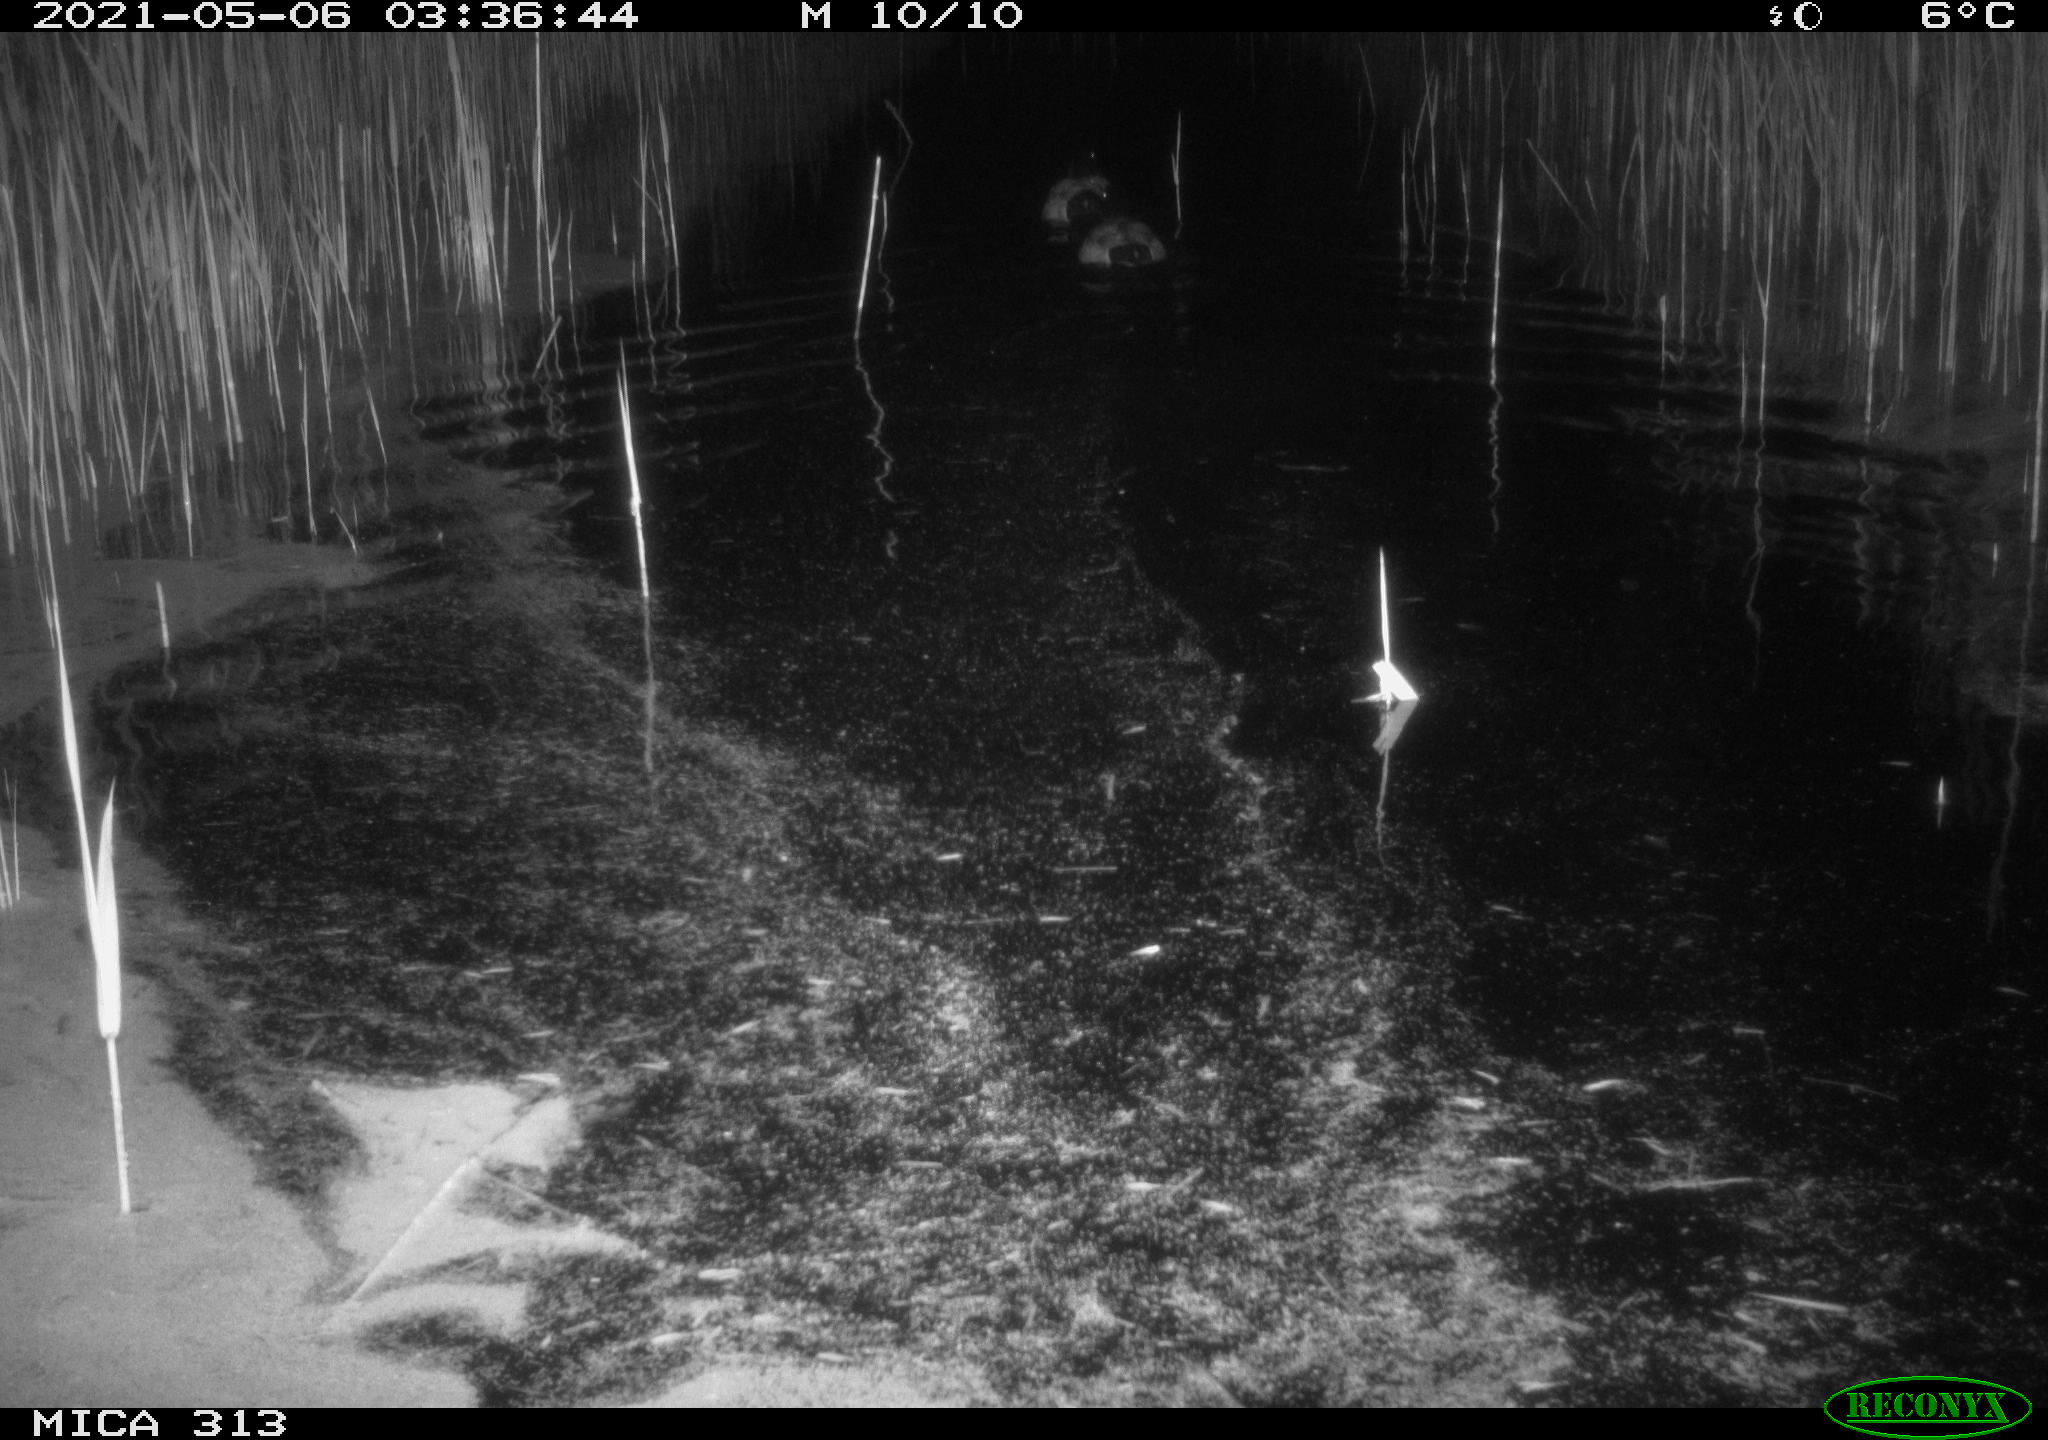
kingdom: Animalia
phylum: Chordata
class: Aves
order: Anseriformes
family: Anatidae
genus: Anas
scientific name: Anas platyrhynchos
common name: Mallard
